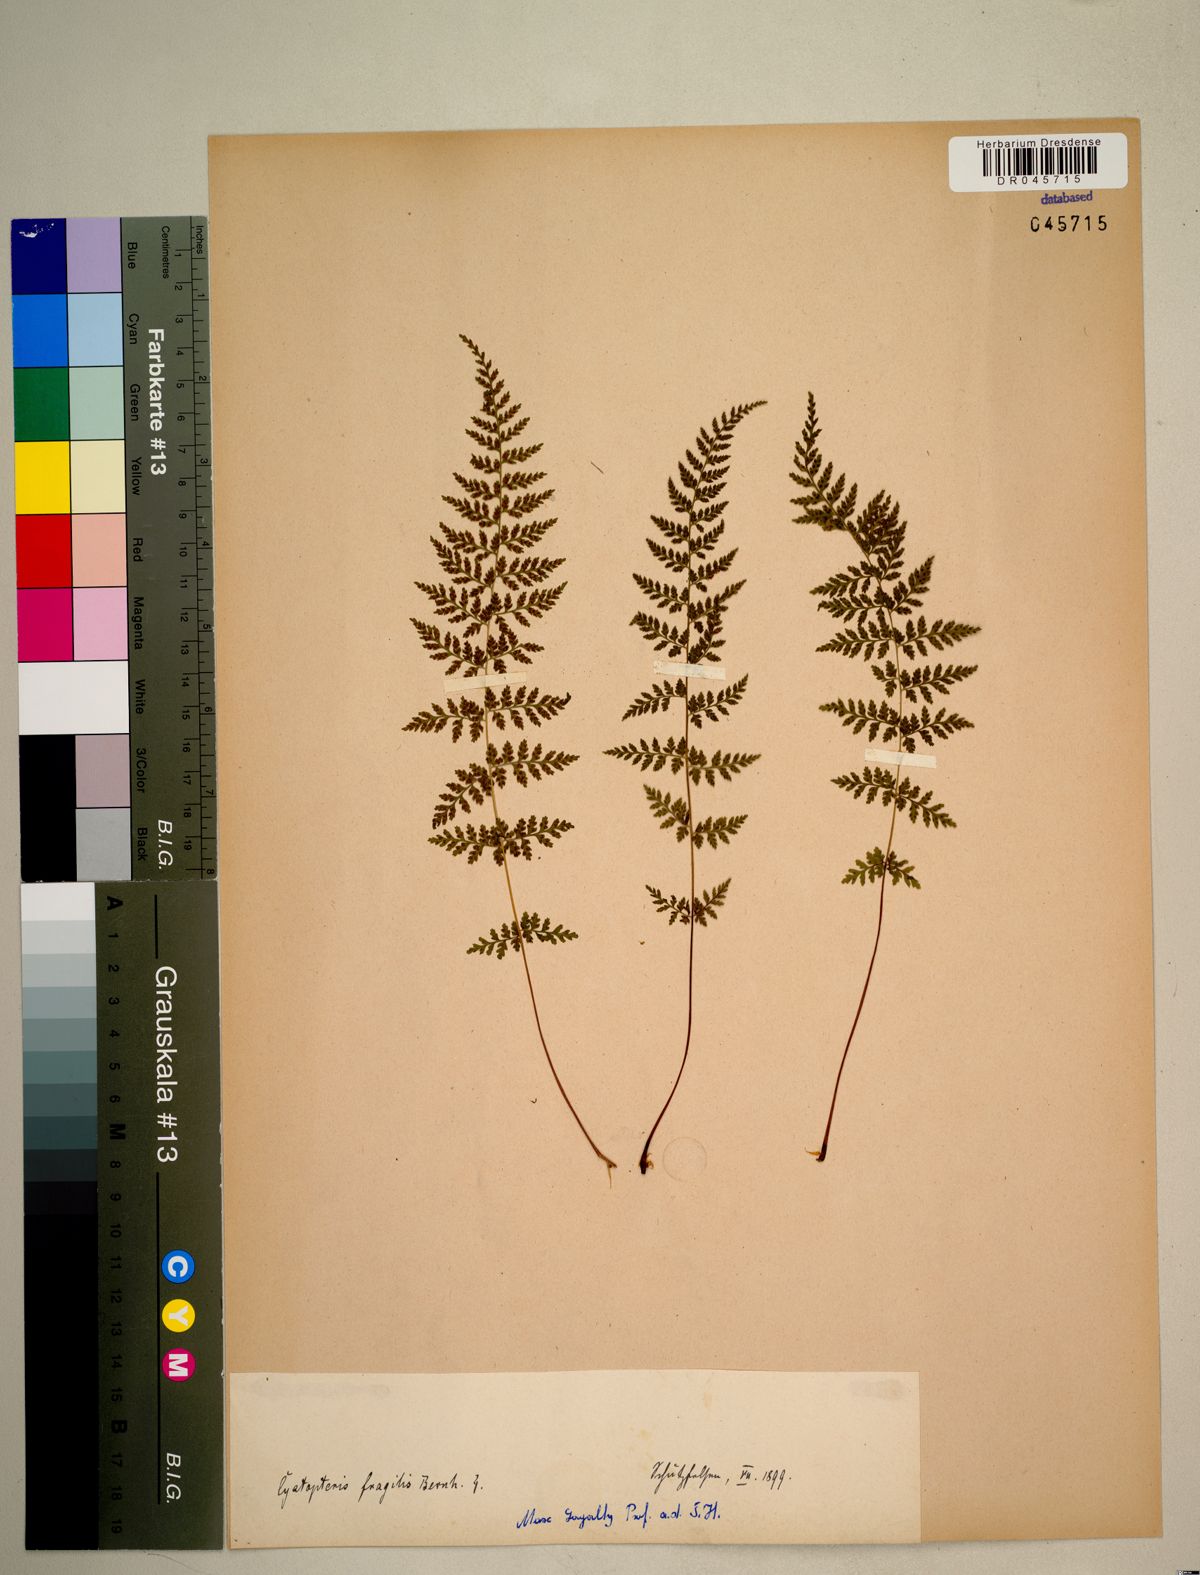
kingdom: Plantae
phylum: Tracheophyta
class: Polypodiopsida
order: Polypodiales
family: Cystopteridaceae
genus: Cystopteris
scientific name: Cystopteris fragilis
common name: Brittle bladder fern
